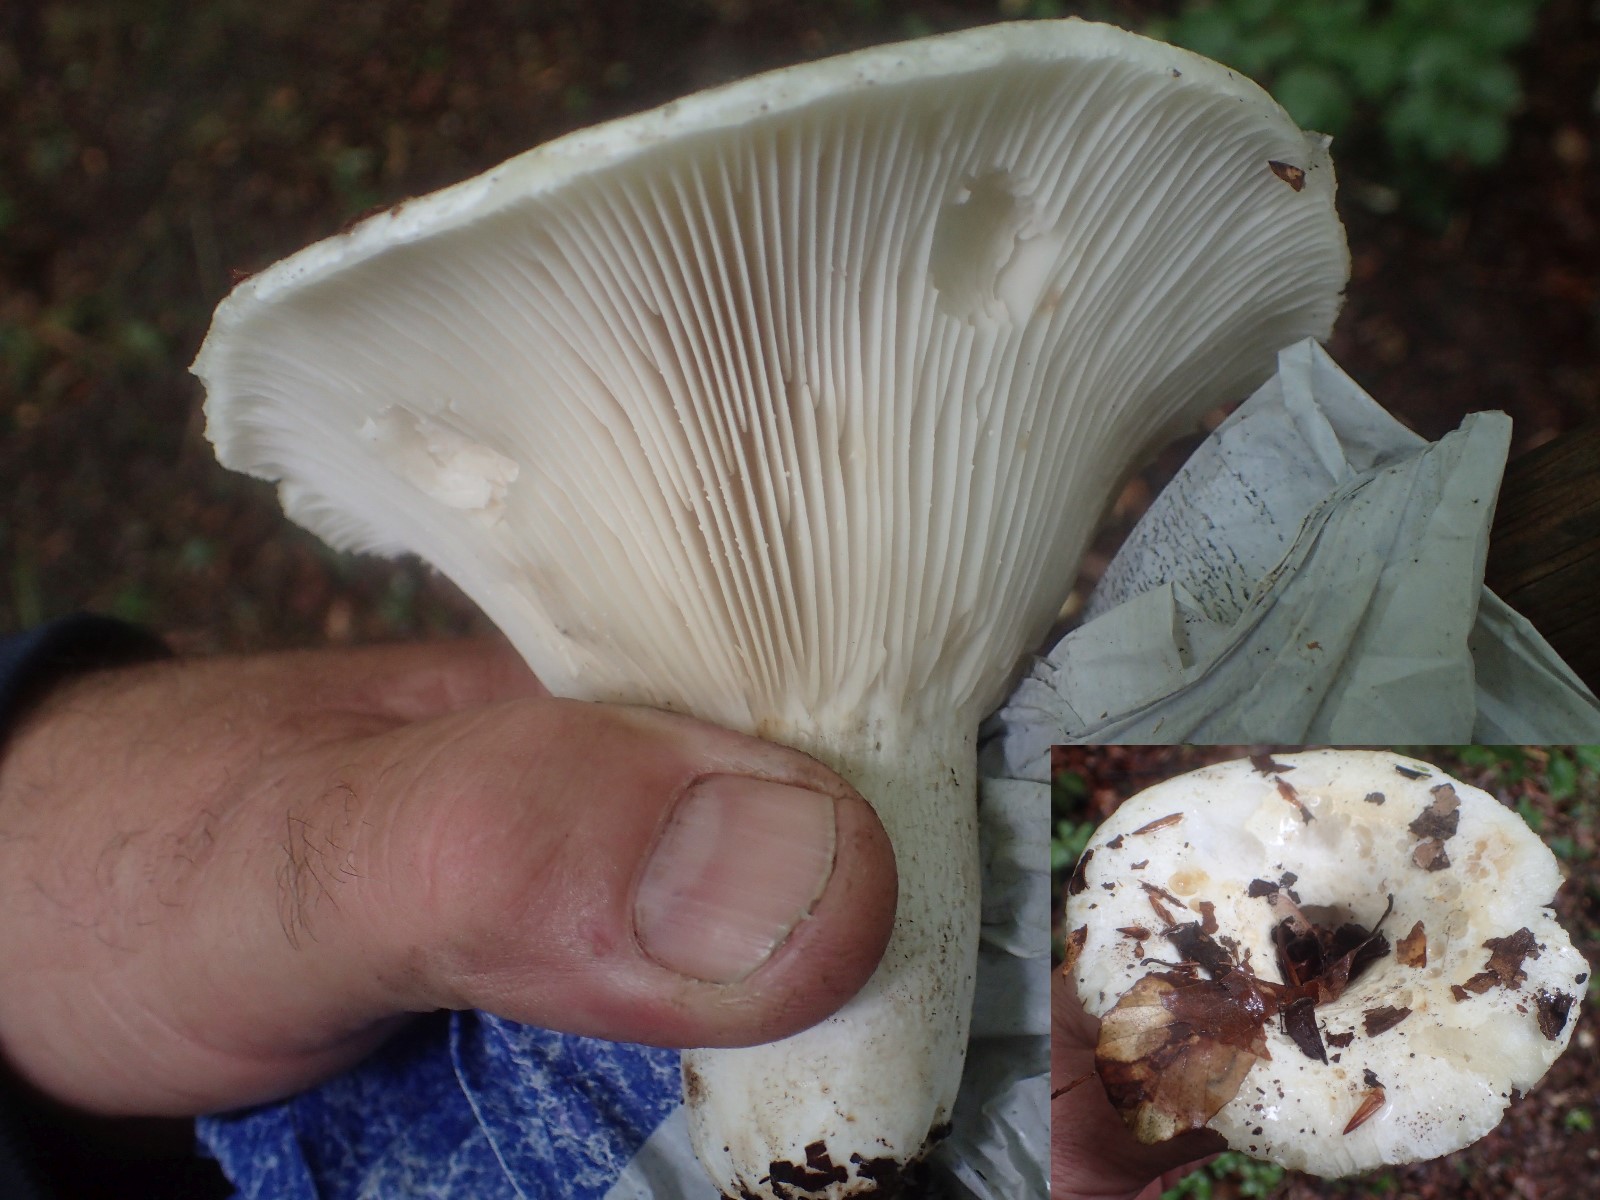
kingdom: Fungi
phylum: Basidiomycota
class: Agaricomycetes
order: Russulales
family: Russulaceae
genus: Russula
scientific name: Russula delica
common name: almindelig tragt-skørhat
